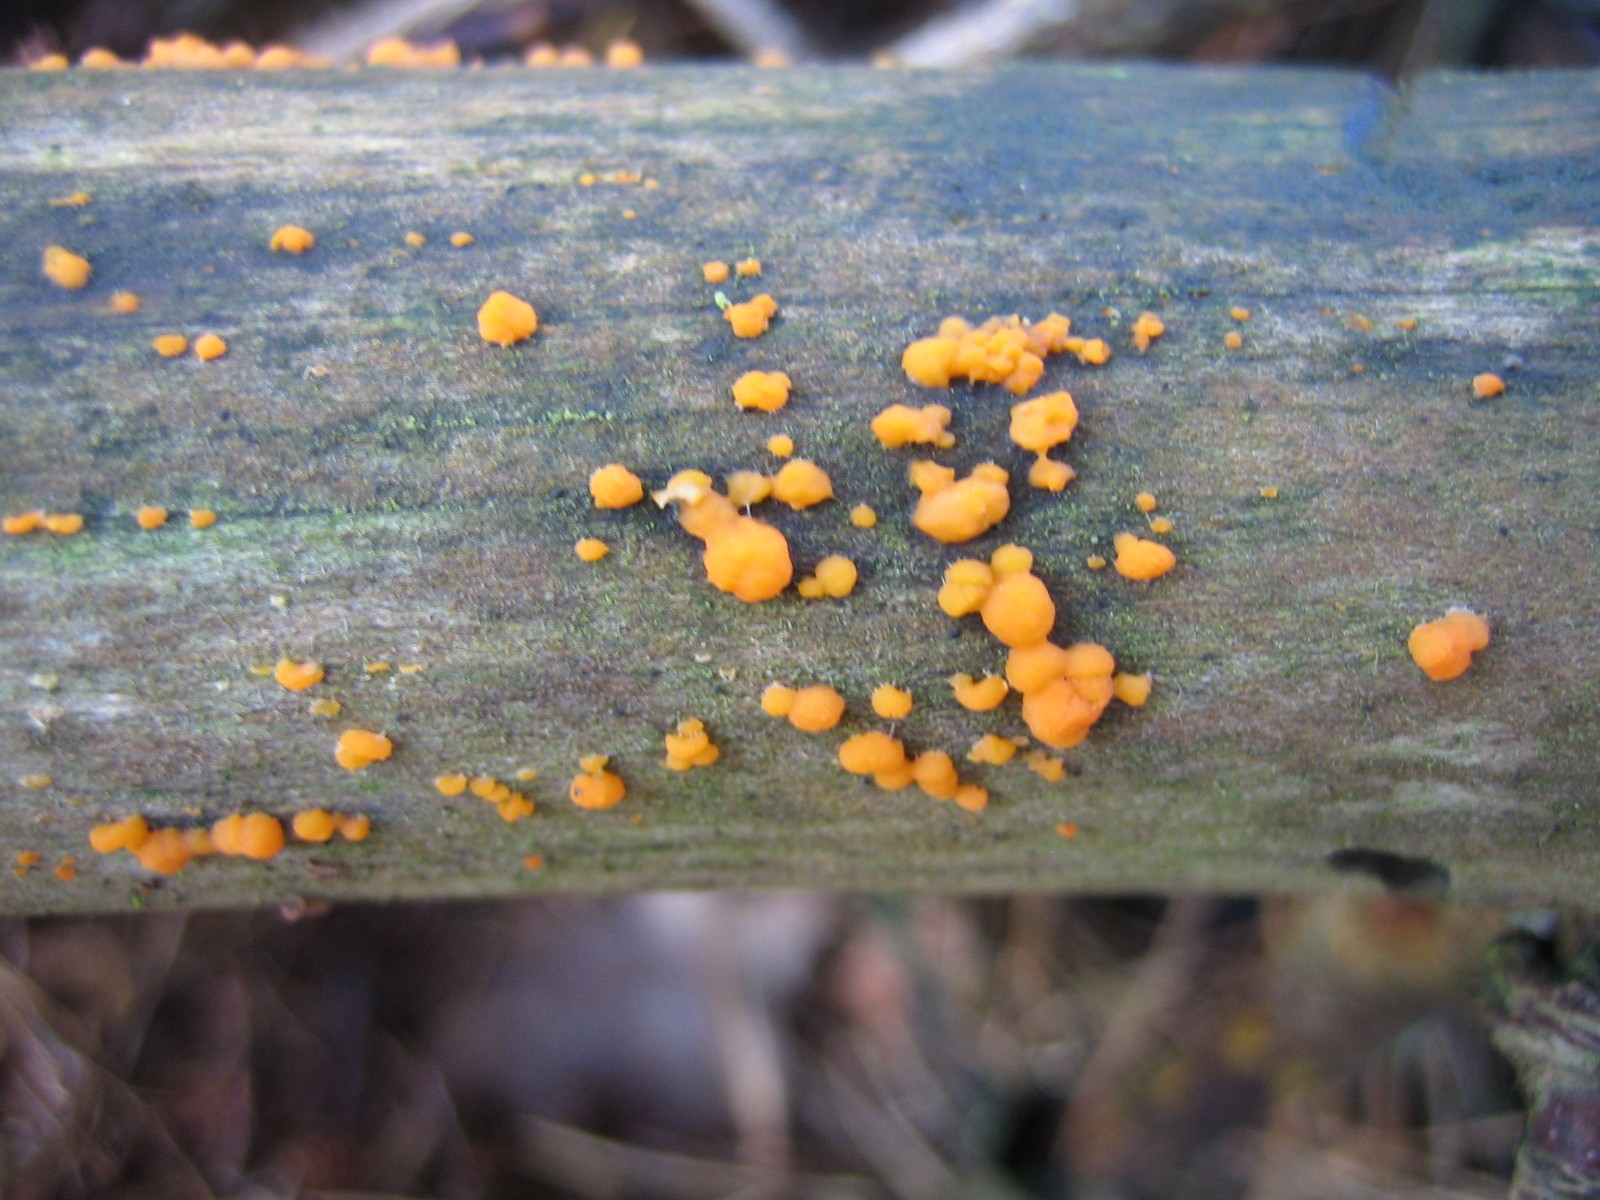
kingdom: Fungi
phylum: Basidiomycota
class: Dacrymycetes
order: Dacrymycetales
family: Dacrymycetaceae
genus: Dacrymyces
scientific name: Dacrymyces stillatus
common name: almindelig tåresvamp
